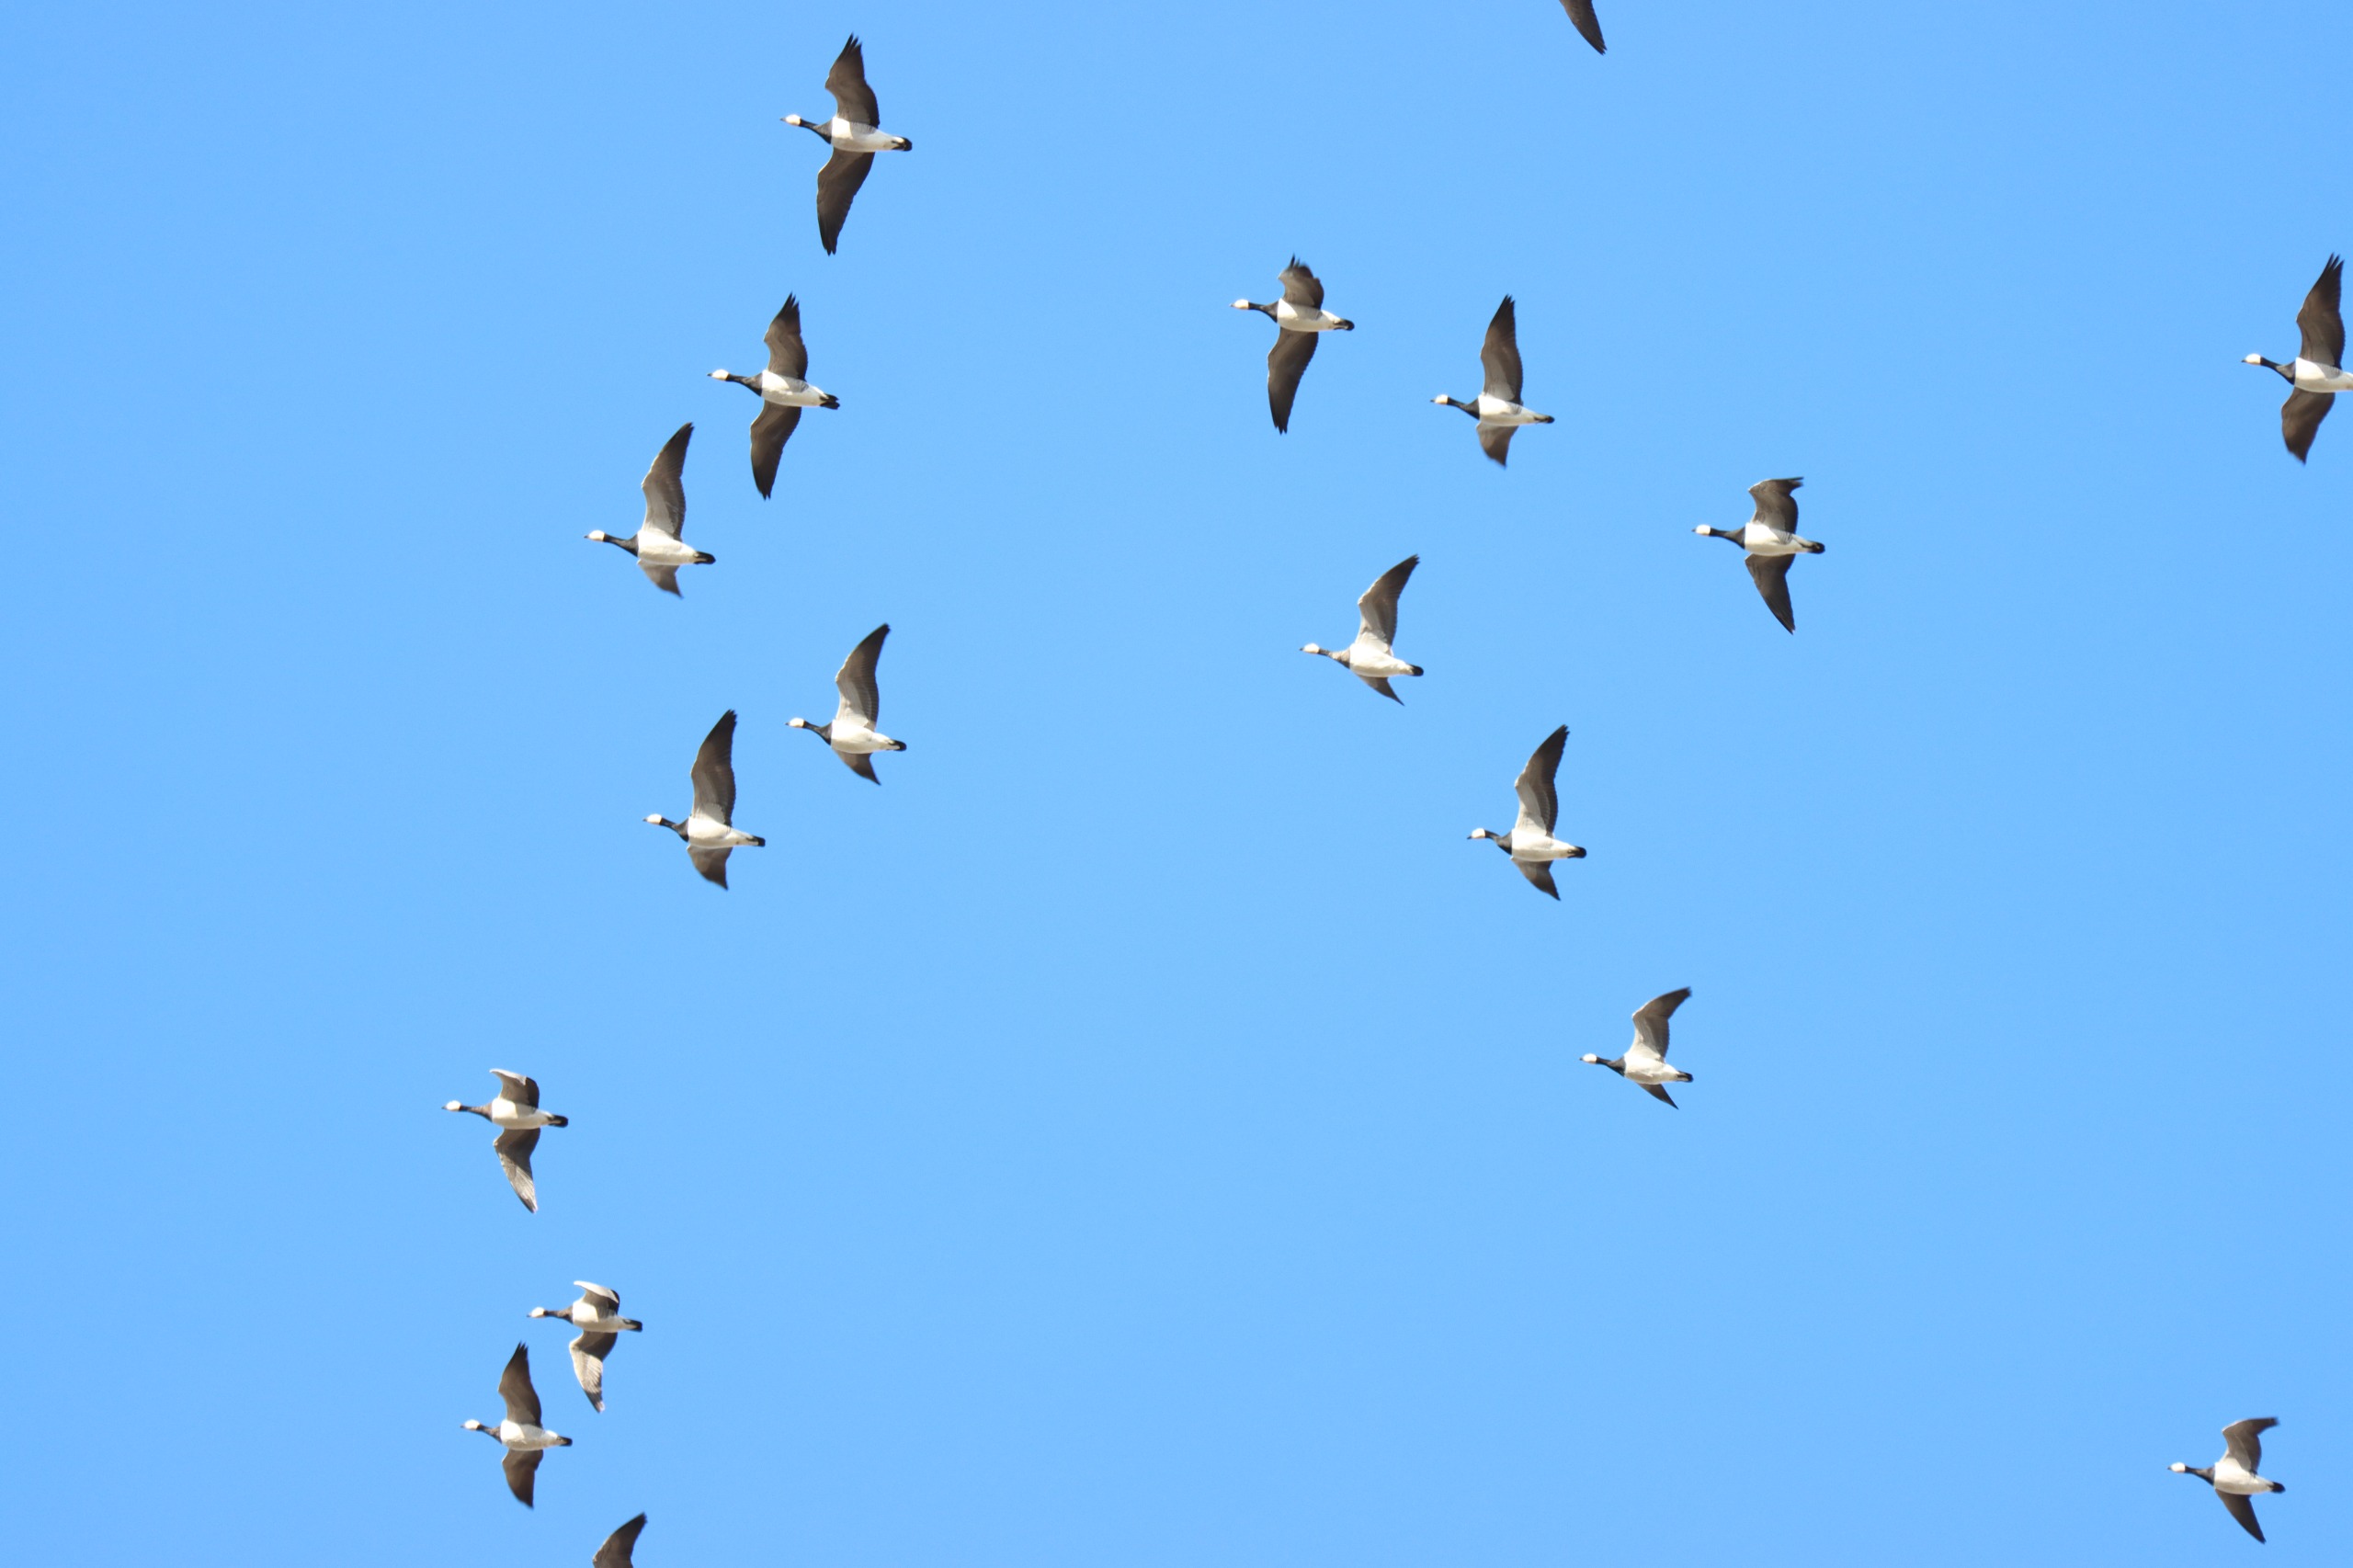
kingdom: Animalia
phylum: Chordata
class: Aves
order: Anseriformes
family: Anatidae
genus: Branta
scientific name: Branta leucopsis
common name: Bramgås
